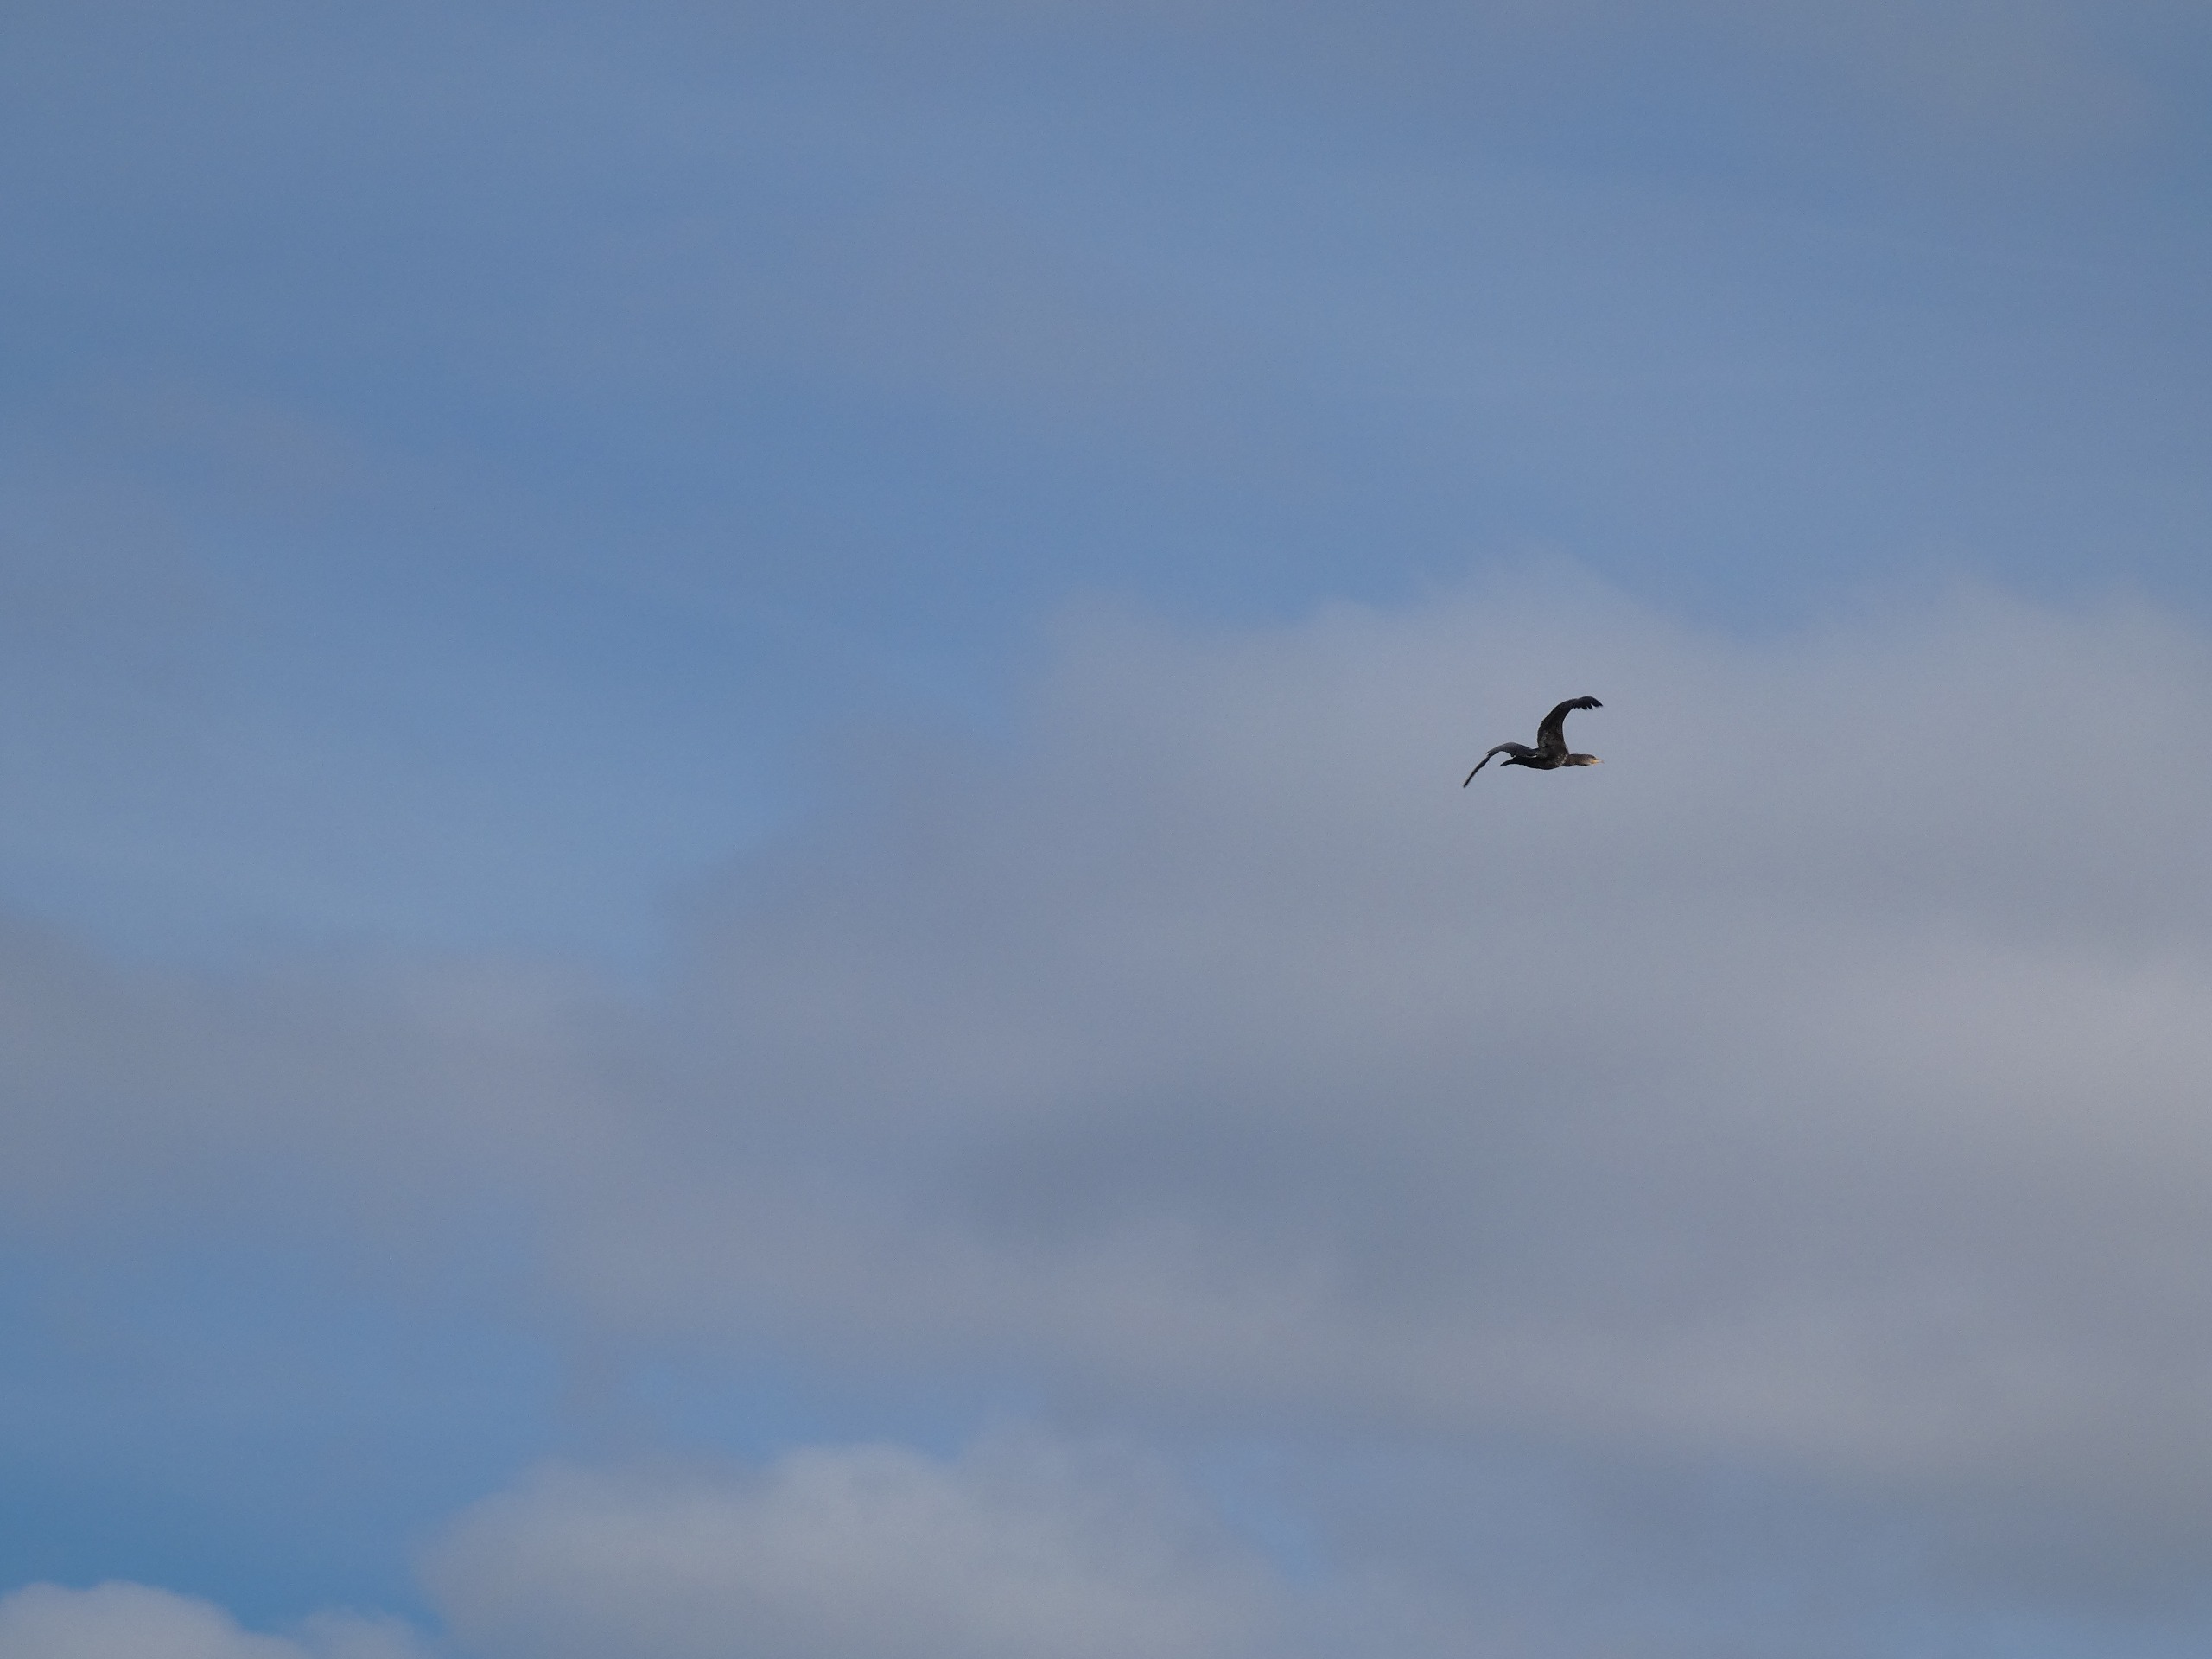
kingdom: Animalia
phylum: Chordata
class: Aves
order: Suliformes
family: Phalacrocoracidae
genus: Phalacrocorax
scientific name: Phalacrocorax carbo
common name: Skarv
